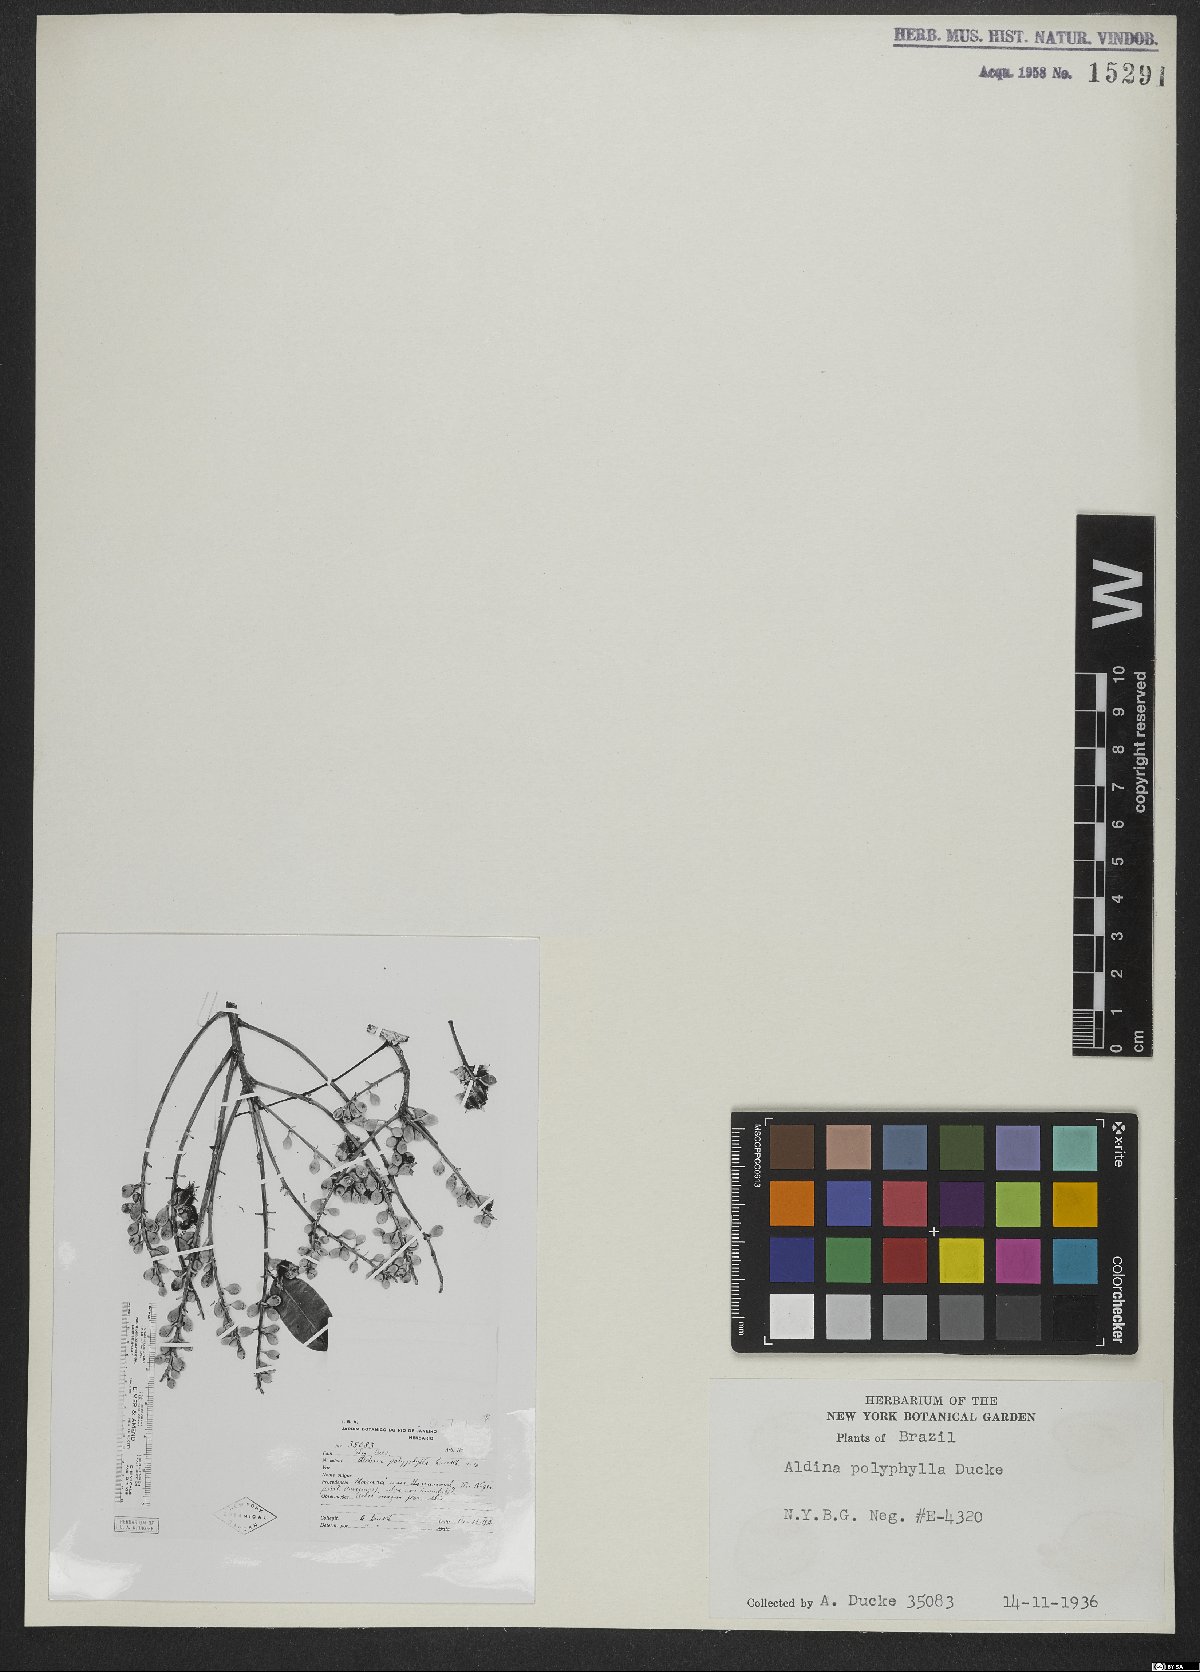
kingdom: Plantae
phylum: Tracheophyta
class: Magnoliopsida
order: Fabales
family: Fabaceae
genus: Aldina
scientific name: Aldina polyphylla
